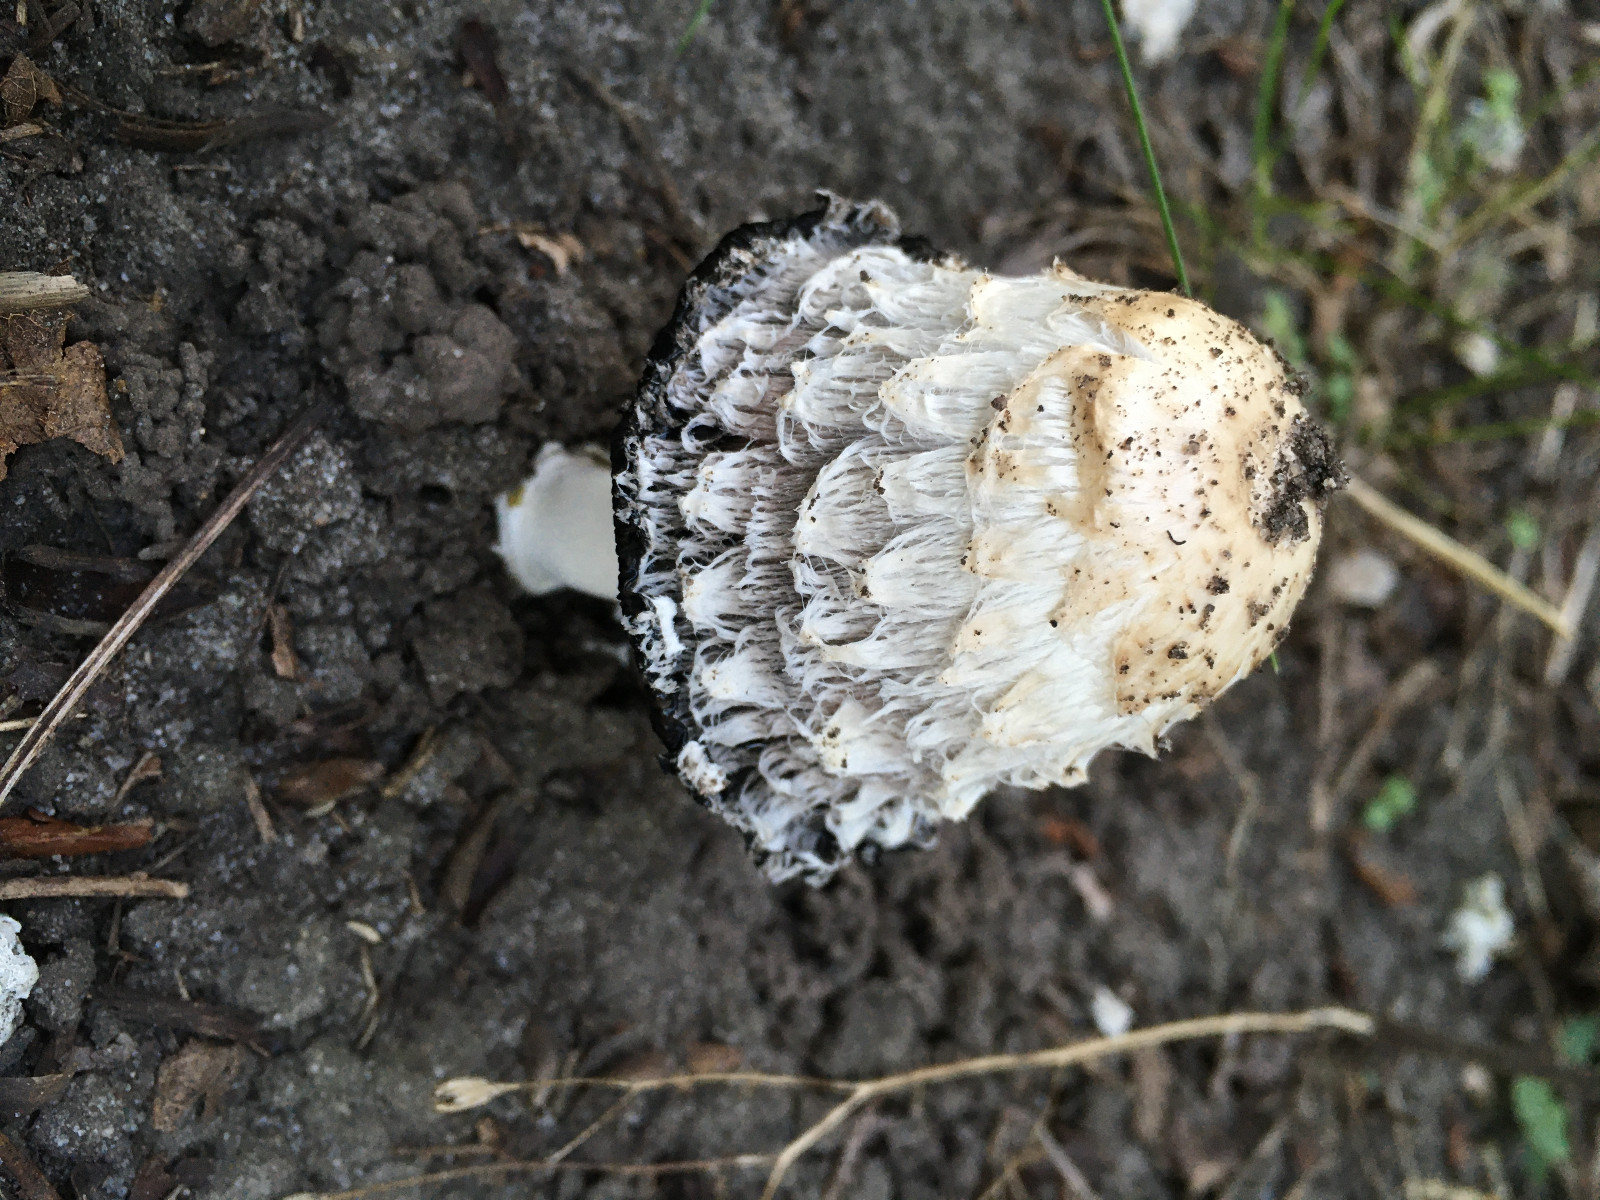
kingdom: Fungi
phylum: Basidiomycota
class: Agaricomycetes
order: Agaricales
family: Agaricaceae
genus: Coprinus
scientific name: Coprinus comatus
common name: stor parykhat
